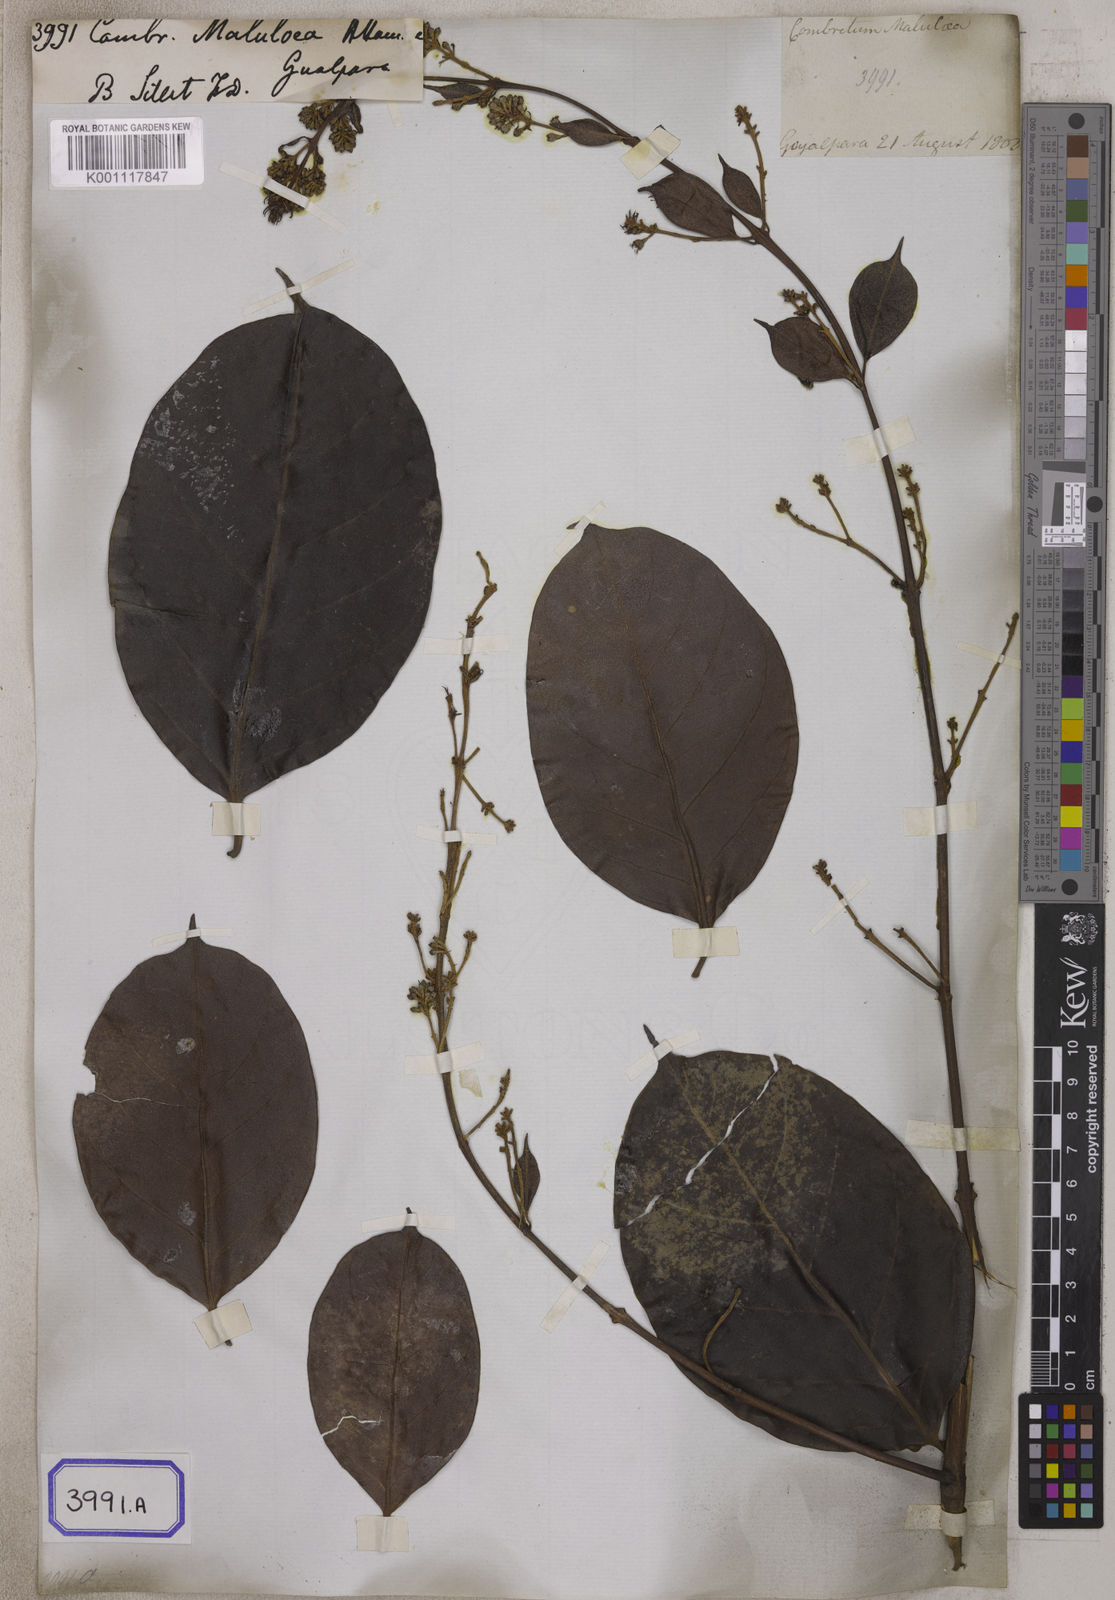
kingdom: Plantae
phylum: Tracheophyta
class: Magnoliopsida
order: Myrtales
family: Combretaceae
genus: Combretum
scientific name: Combretum punctatum
